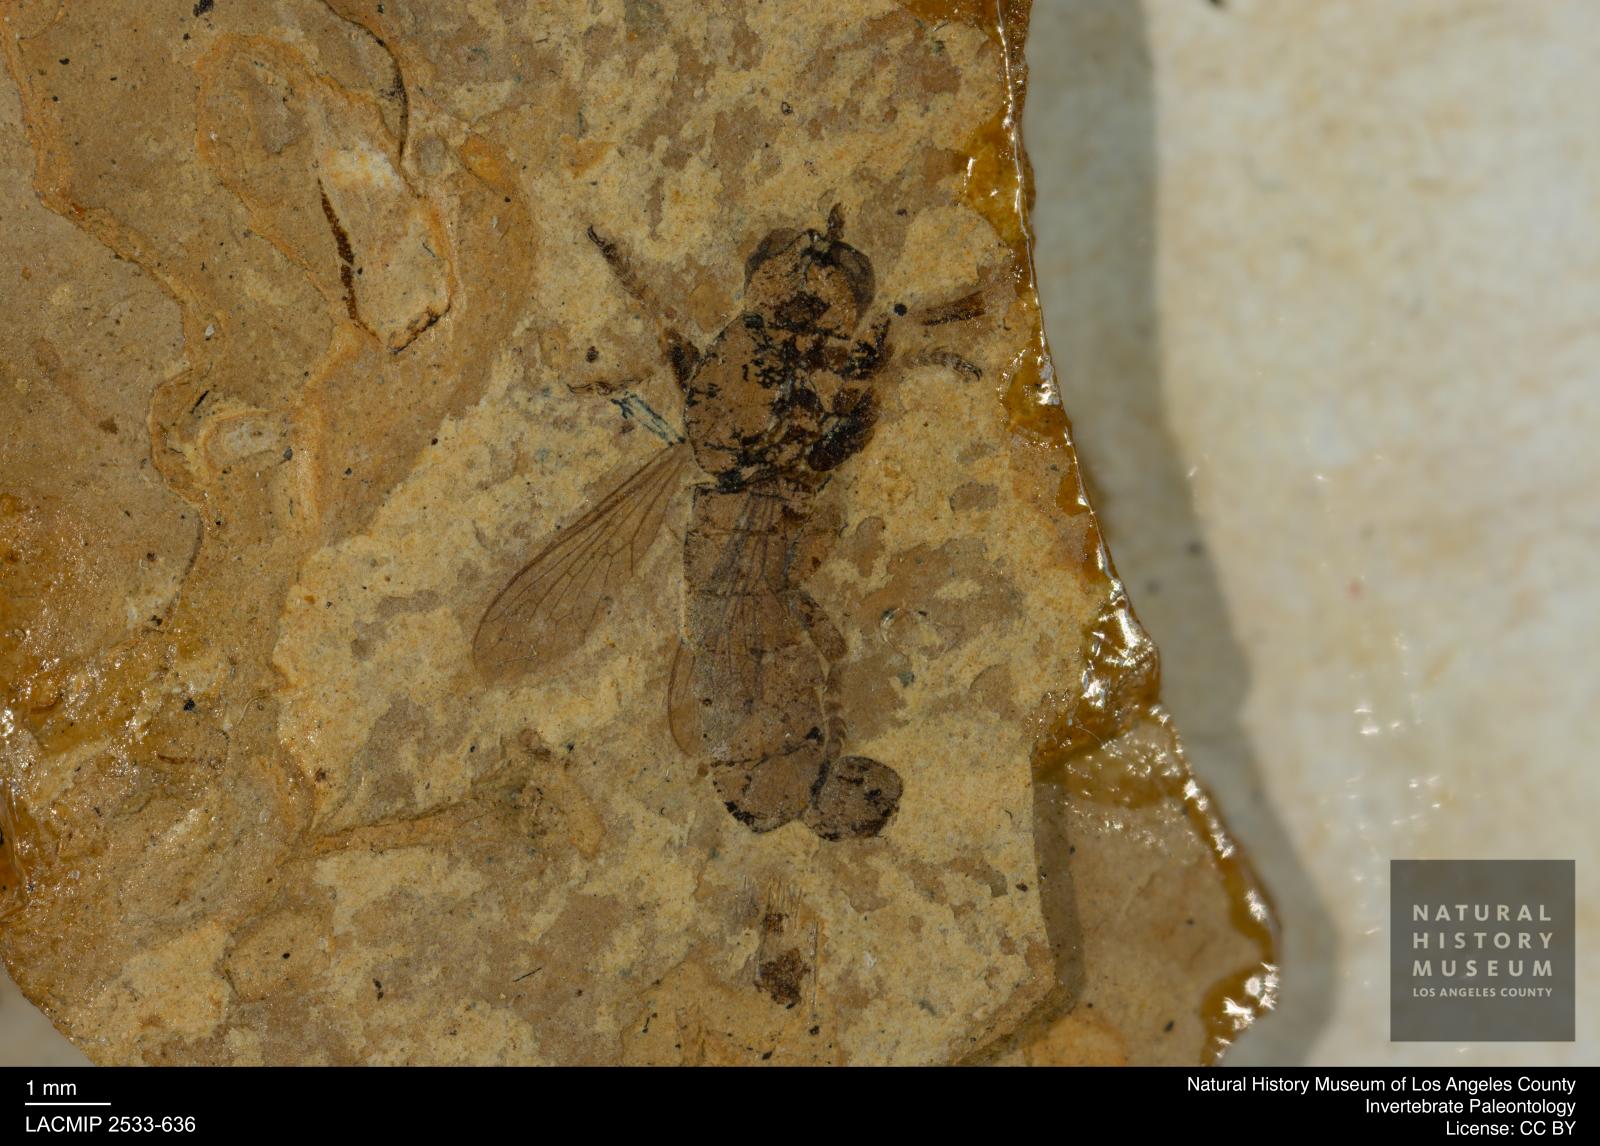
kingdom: Animalia
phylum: Arthropoda
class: Insecta
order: Diptera
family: Asilidae
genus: Psilocurus
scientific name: Psilocurus tarsalis
